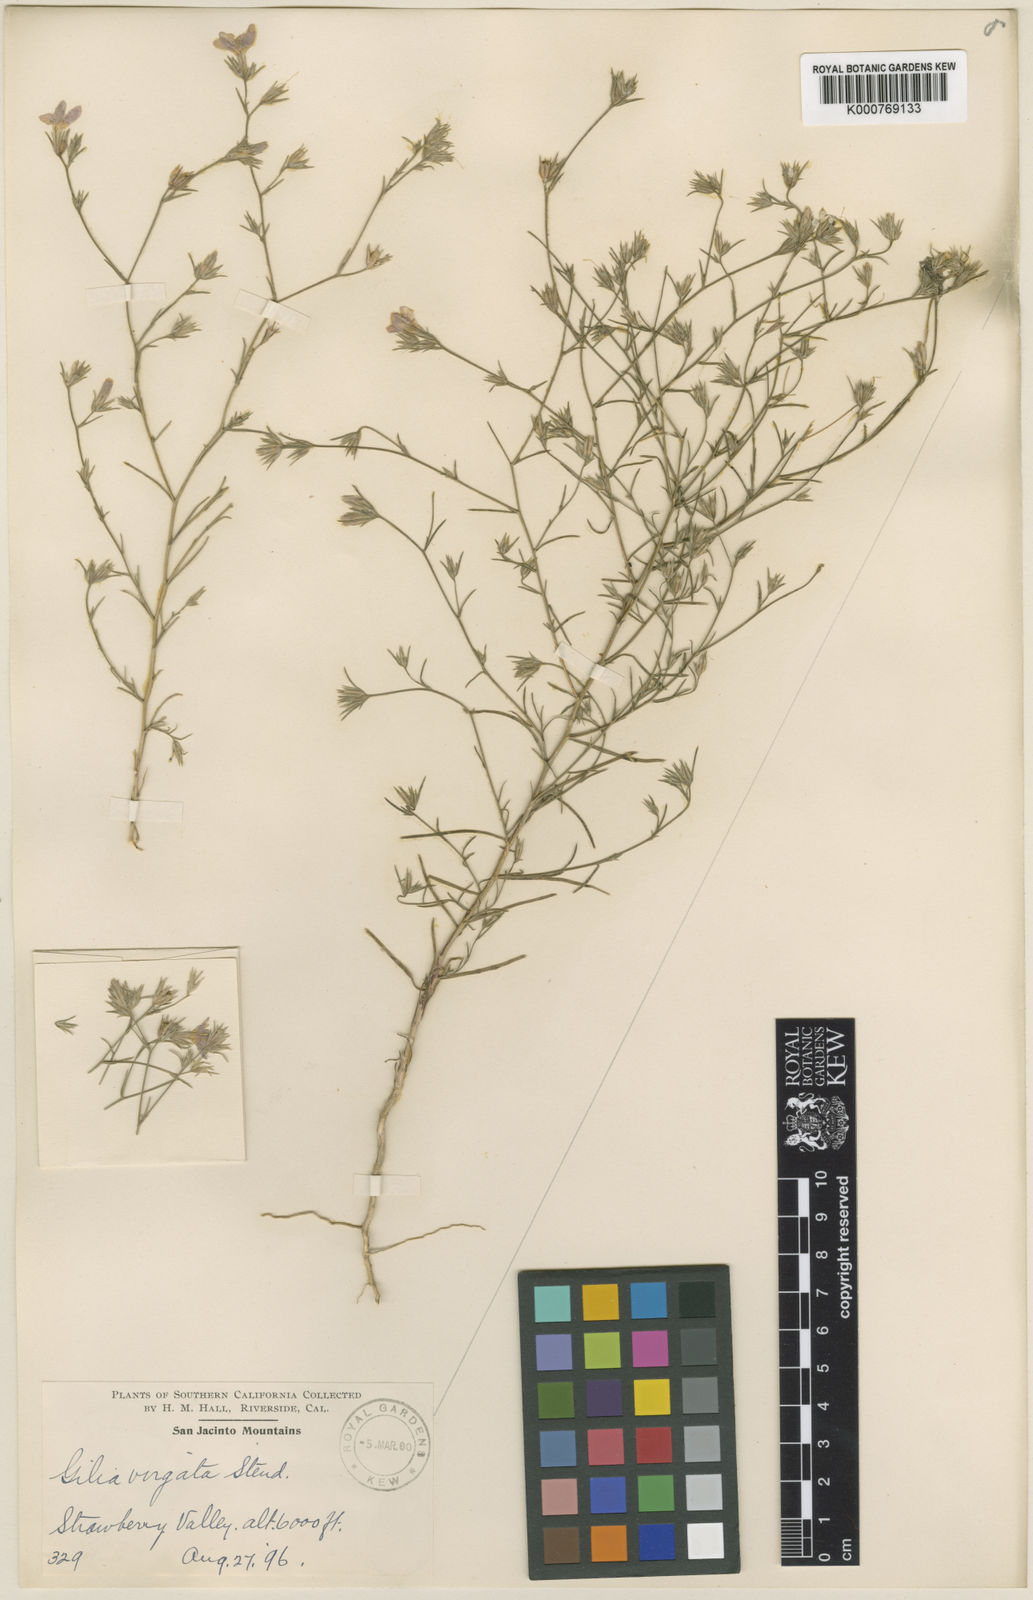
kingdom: Plantae
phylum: Tracheophyta
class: Magnoliopsida
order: Ericales
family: Polemoniaceae
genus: Eriastrum
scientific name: Eriastrum virgatum
